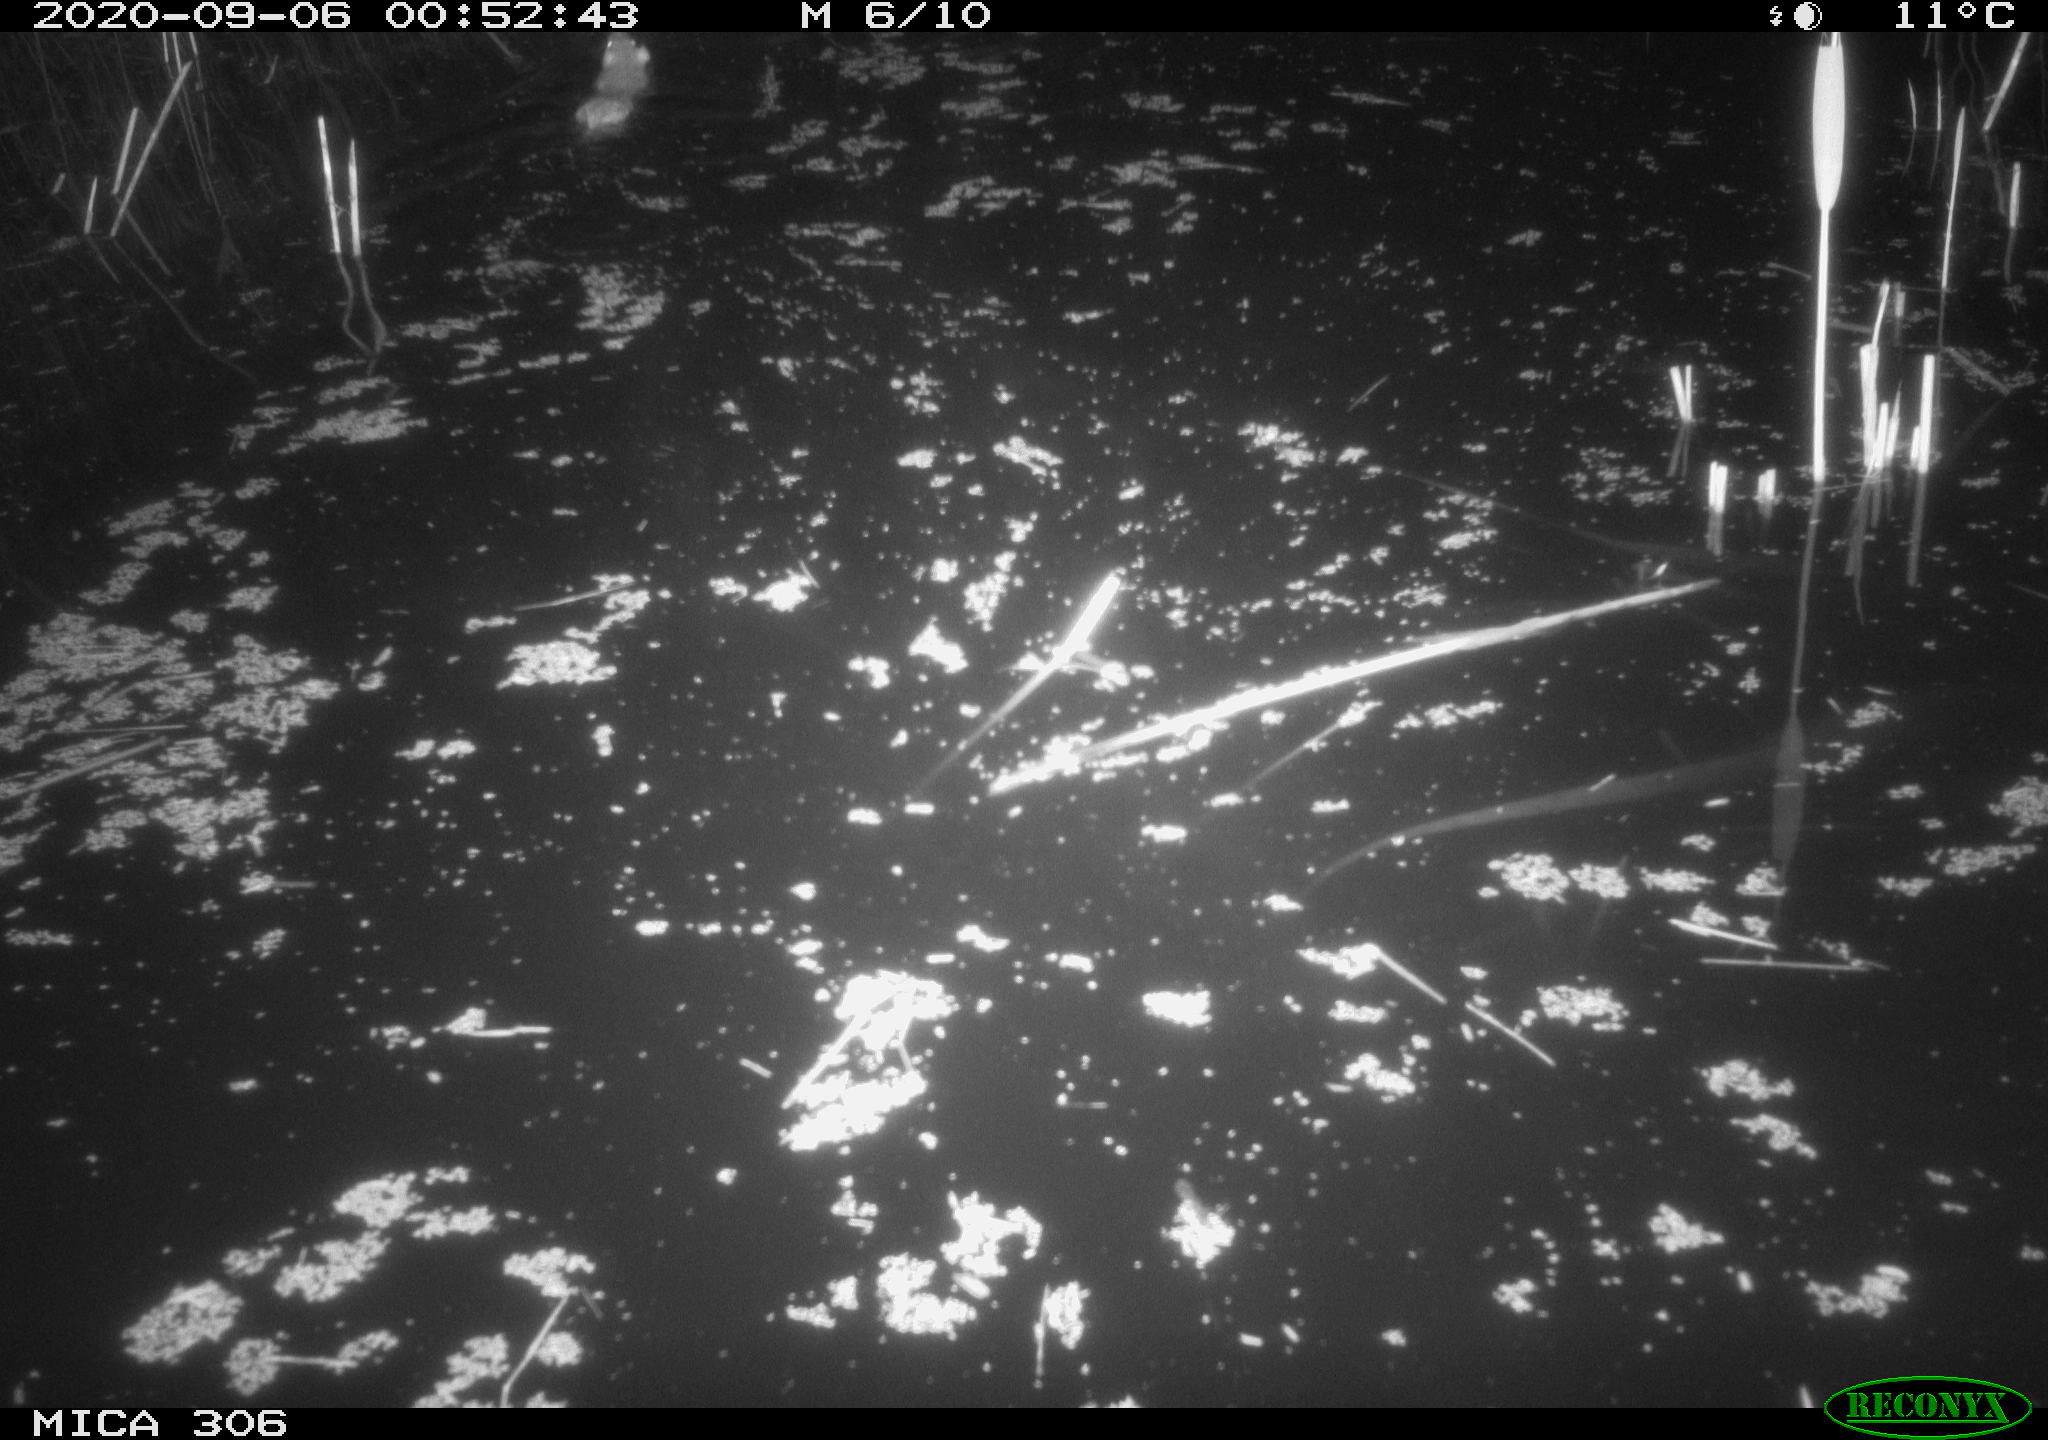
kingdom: Animalia
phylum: Chordata
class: Mammalia
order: Rodentia
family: Muridae
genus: Rattus
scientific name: Rattus norvegicus
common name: Brown rat
